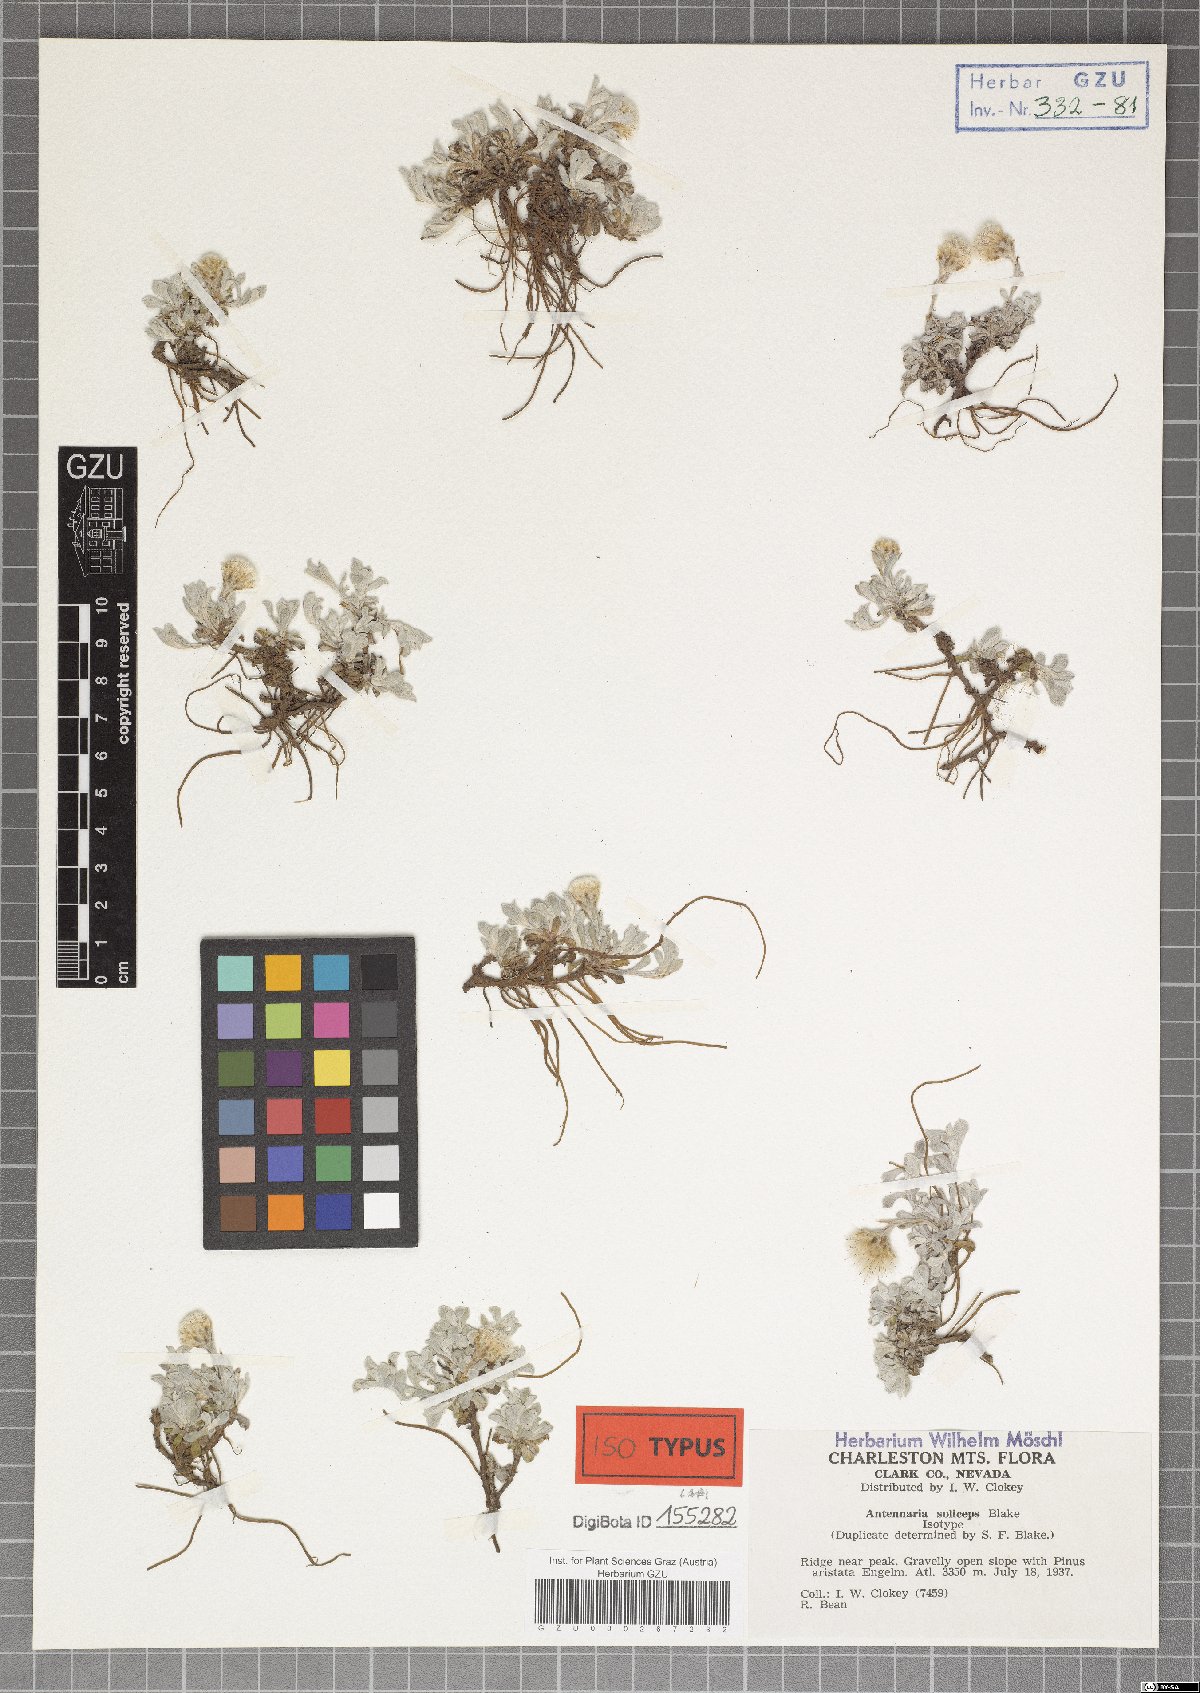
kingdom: Plantae
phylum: Tracheophyta
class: Magnoliopsida
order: Asterales
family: Asteraceae
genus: Antennaria
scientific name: Antennaria soliceps
